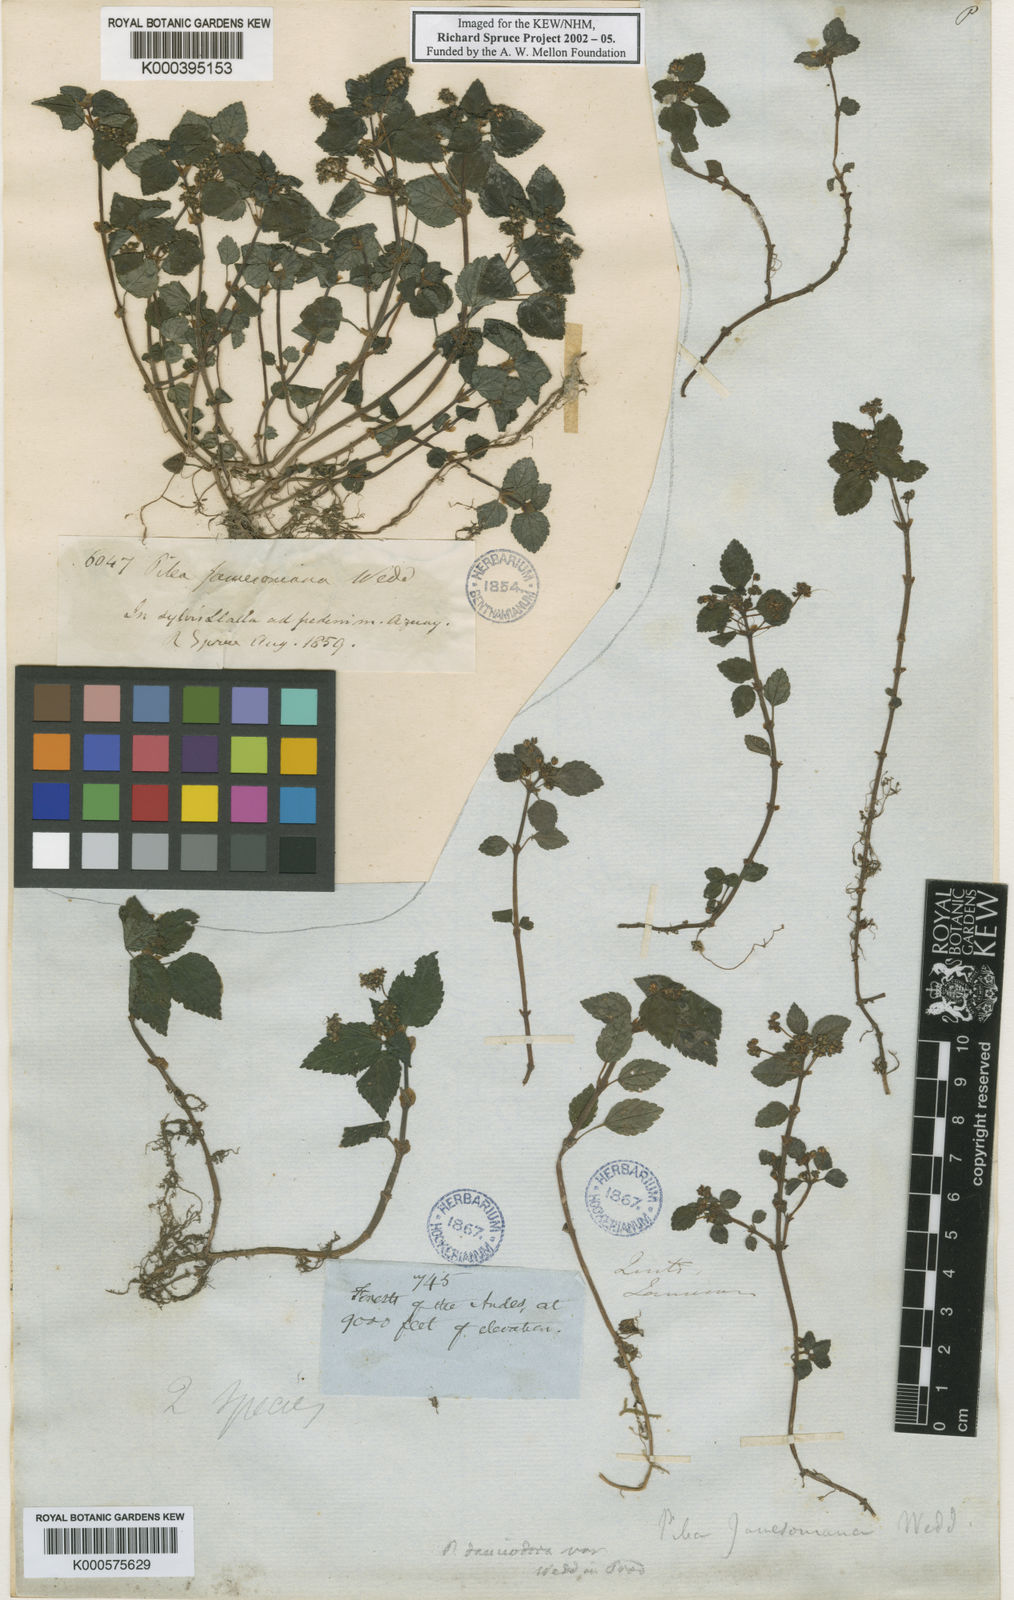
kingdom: Plantae
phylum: Tracheophyta
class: Magnoliopsida
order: Rosales
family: Urticaceae
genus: Pilea
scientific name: Pilea dauciodora
